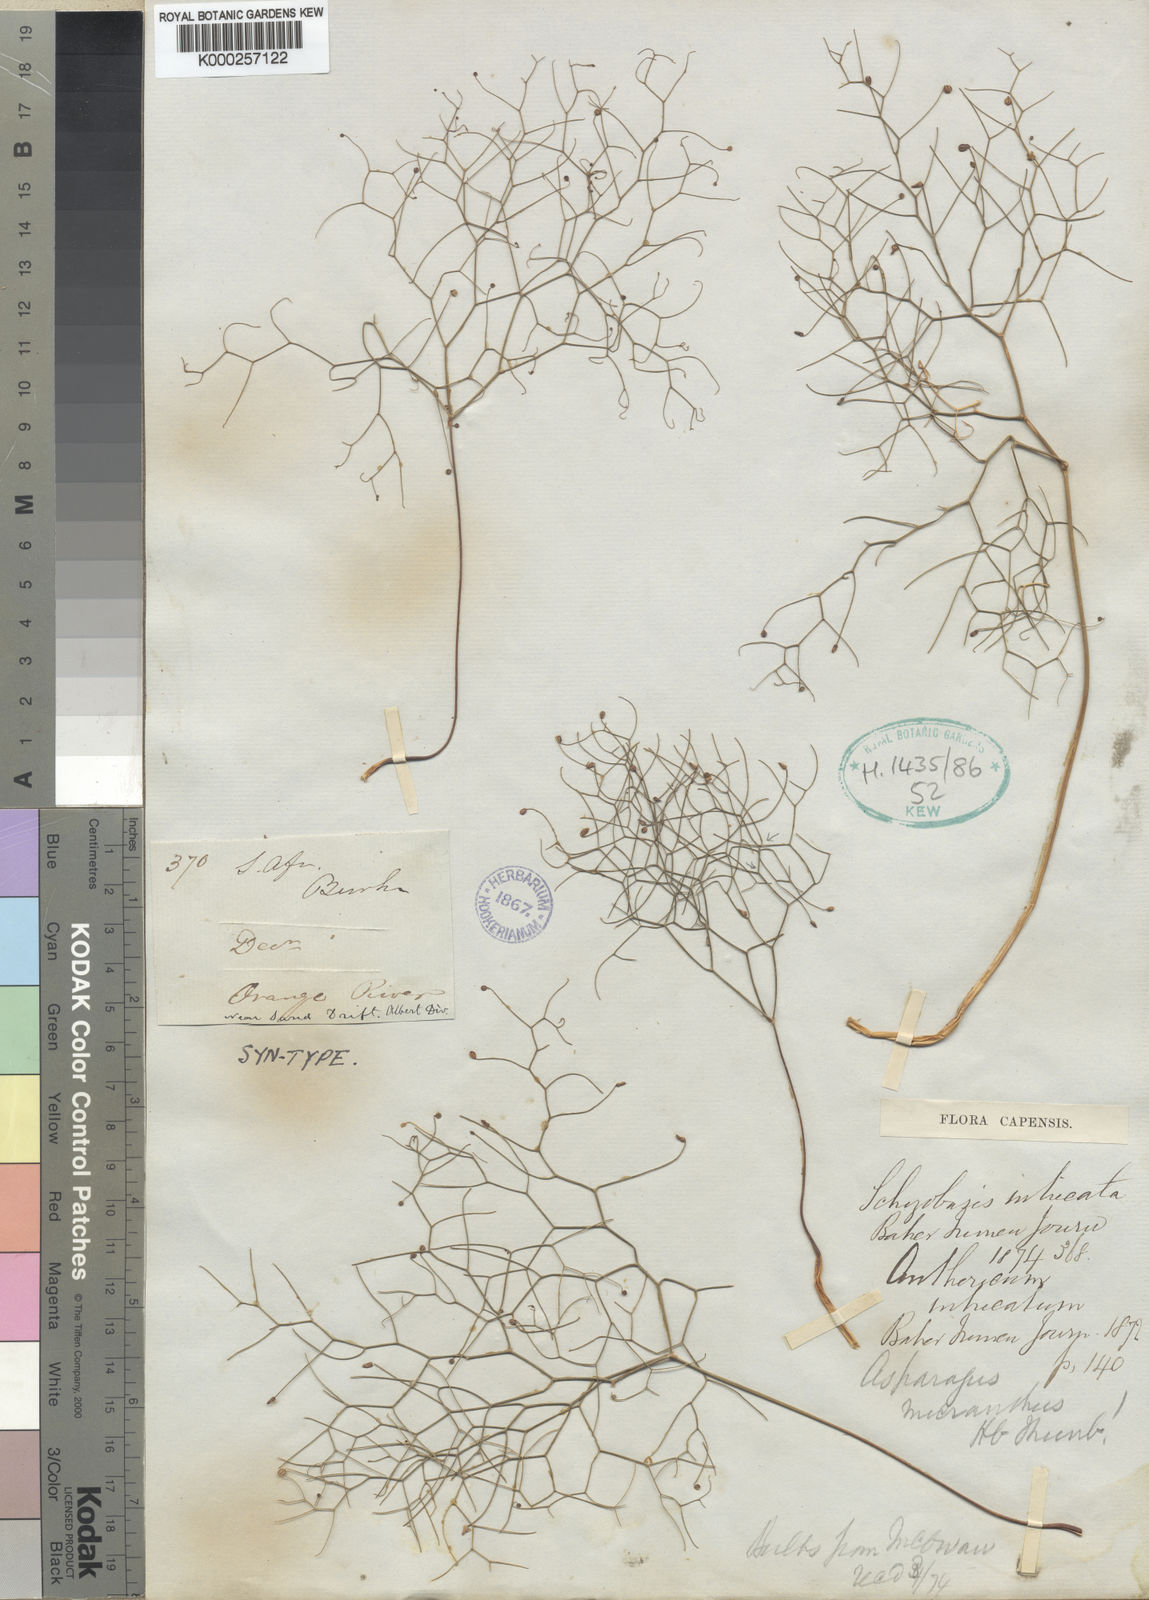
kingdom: Plantae
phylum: Tracheophyta
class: Liliopsida
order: Asparagales
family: Asparagaceae
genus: Drimia
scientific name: Drimia intricata
